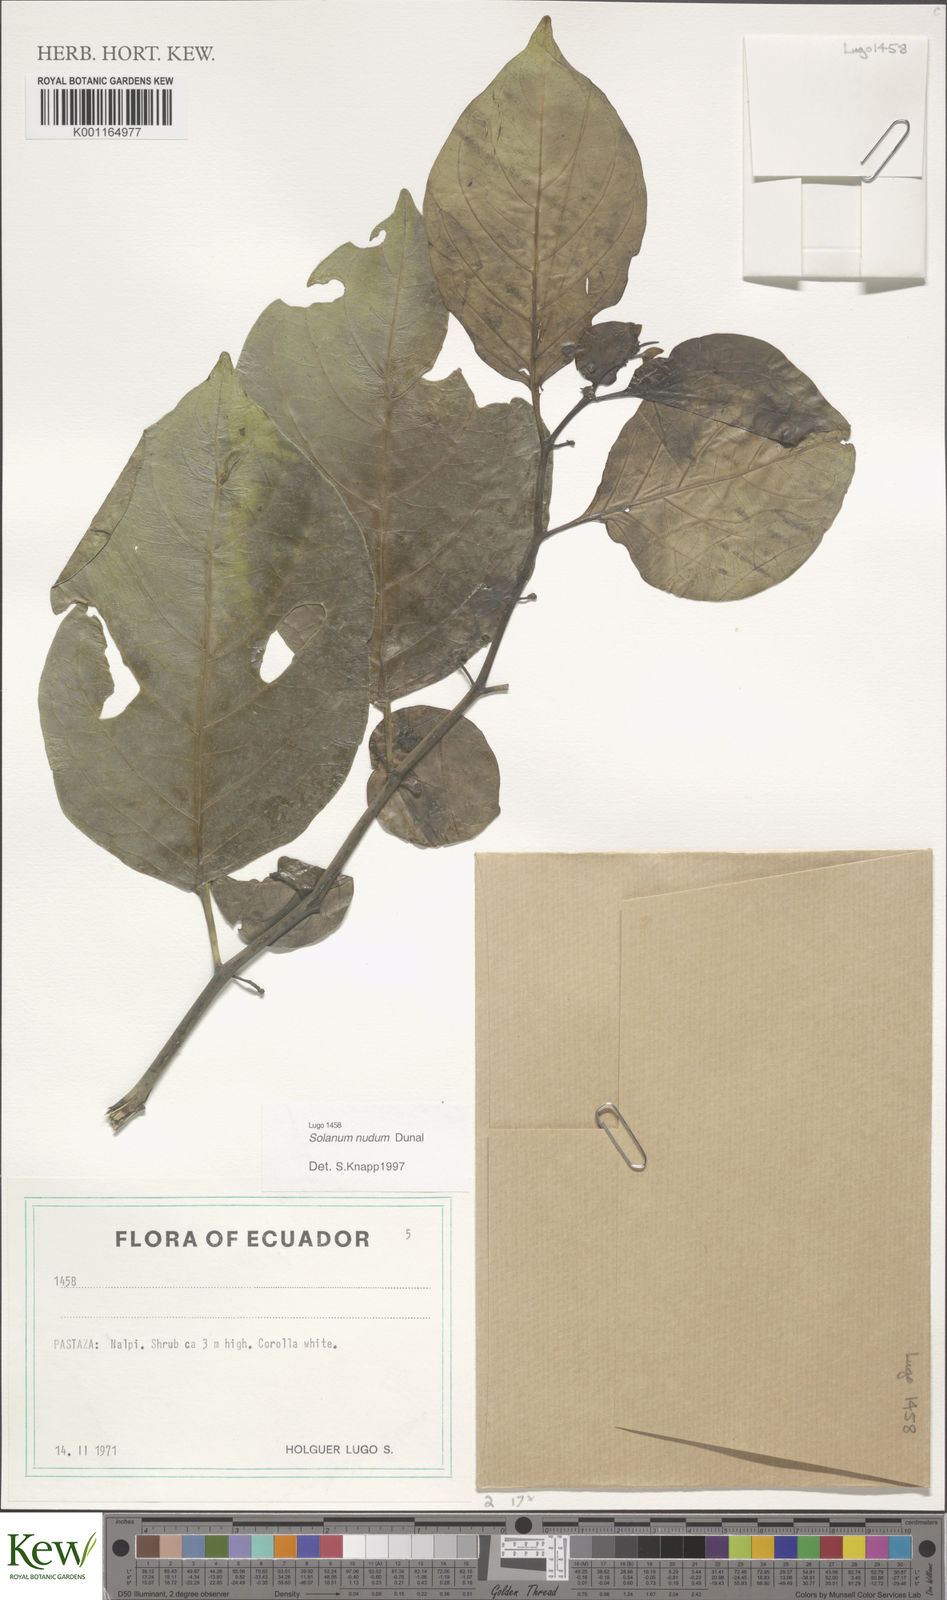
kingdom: Plantae
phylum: Tracheophyta
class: Magnoliopsida
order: Solanales
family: Solanaceae
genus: Solanum
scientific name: Solanum nudum
